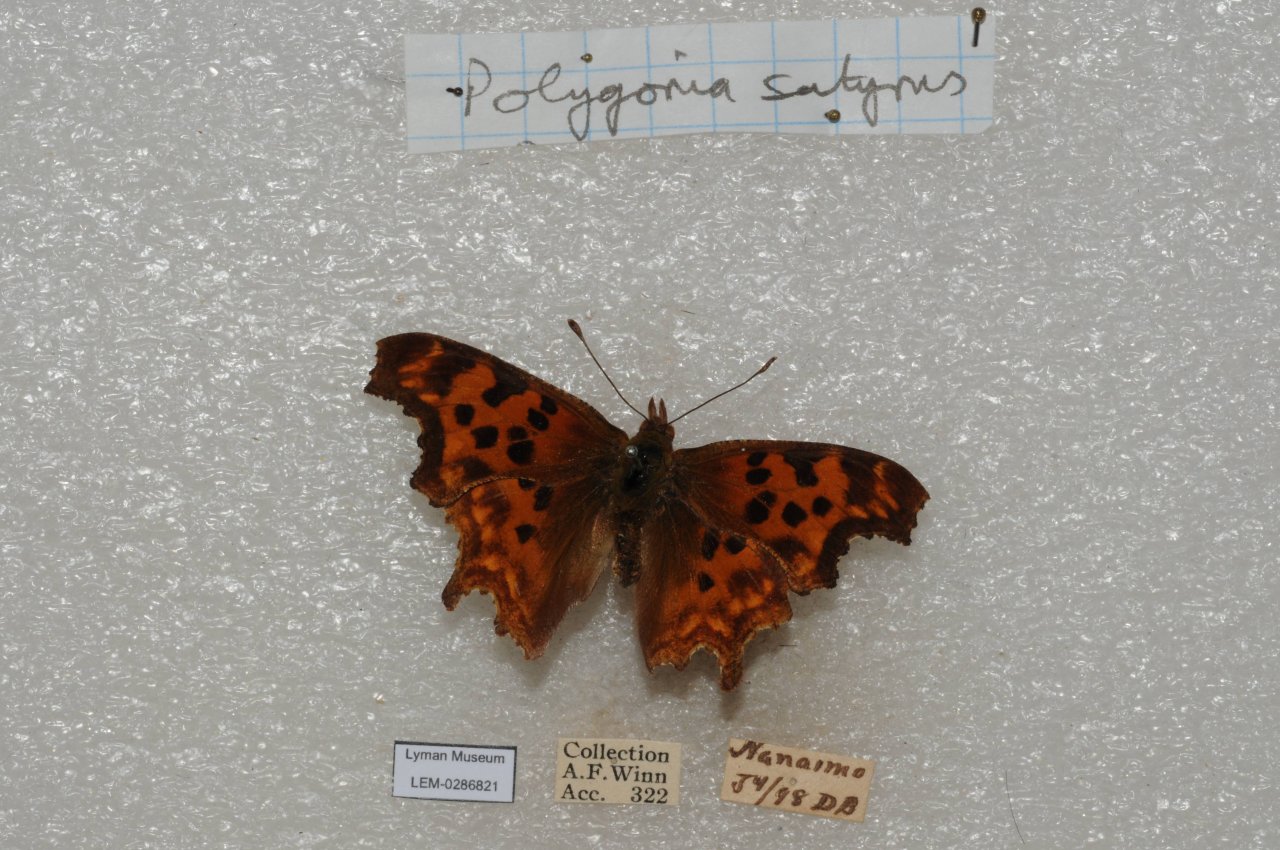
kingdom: Animalia
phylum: Arthropoda
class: Insecta
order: Lepidoptera
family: Nymphalidae
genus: Polygonia
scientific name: Polygonia satyrus
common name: Satyr Comma
